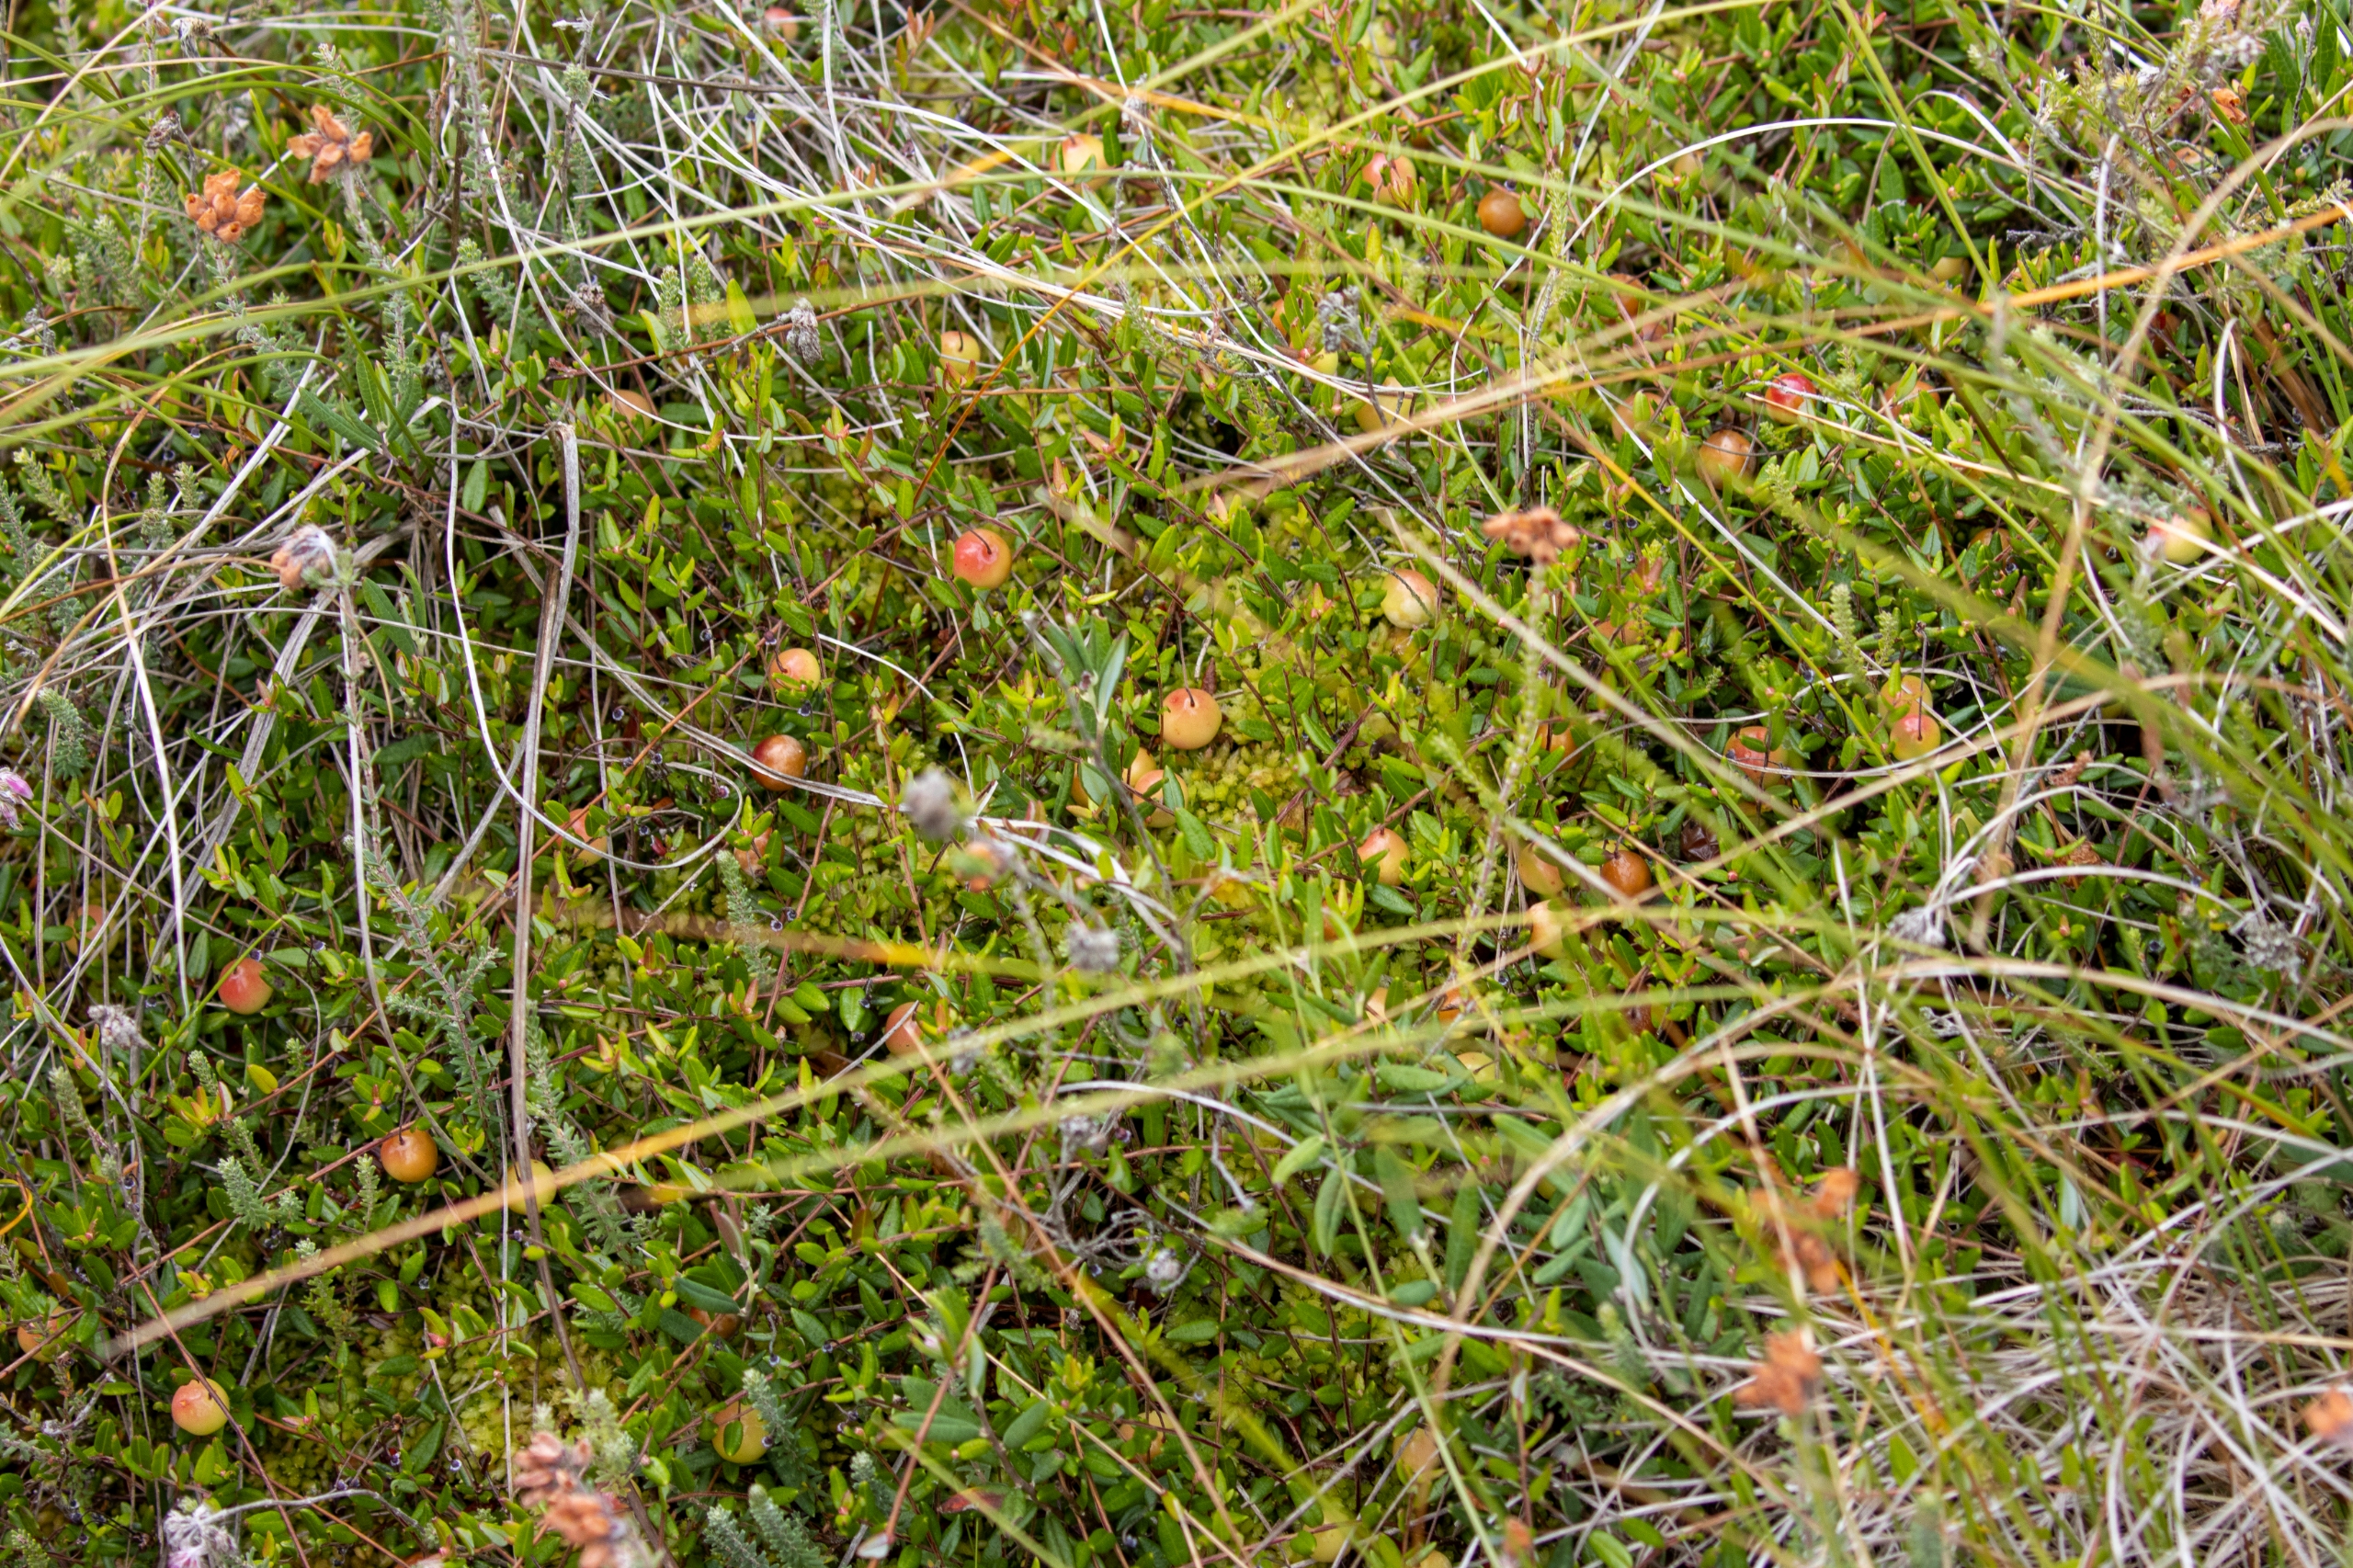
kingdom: Plantae
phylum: Tracheophyta
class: Magnoliopsida
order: Ericales
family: Ericaceae
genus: Vaccinium
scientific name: Vaccinium oxycoccos
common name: Tranebær
